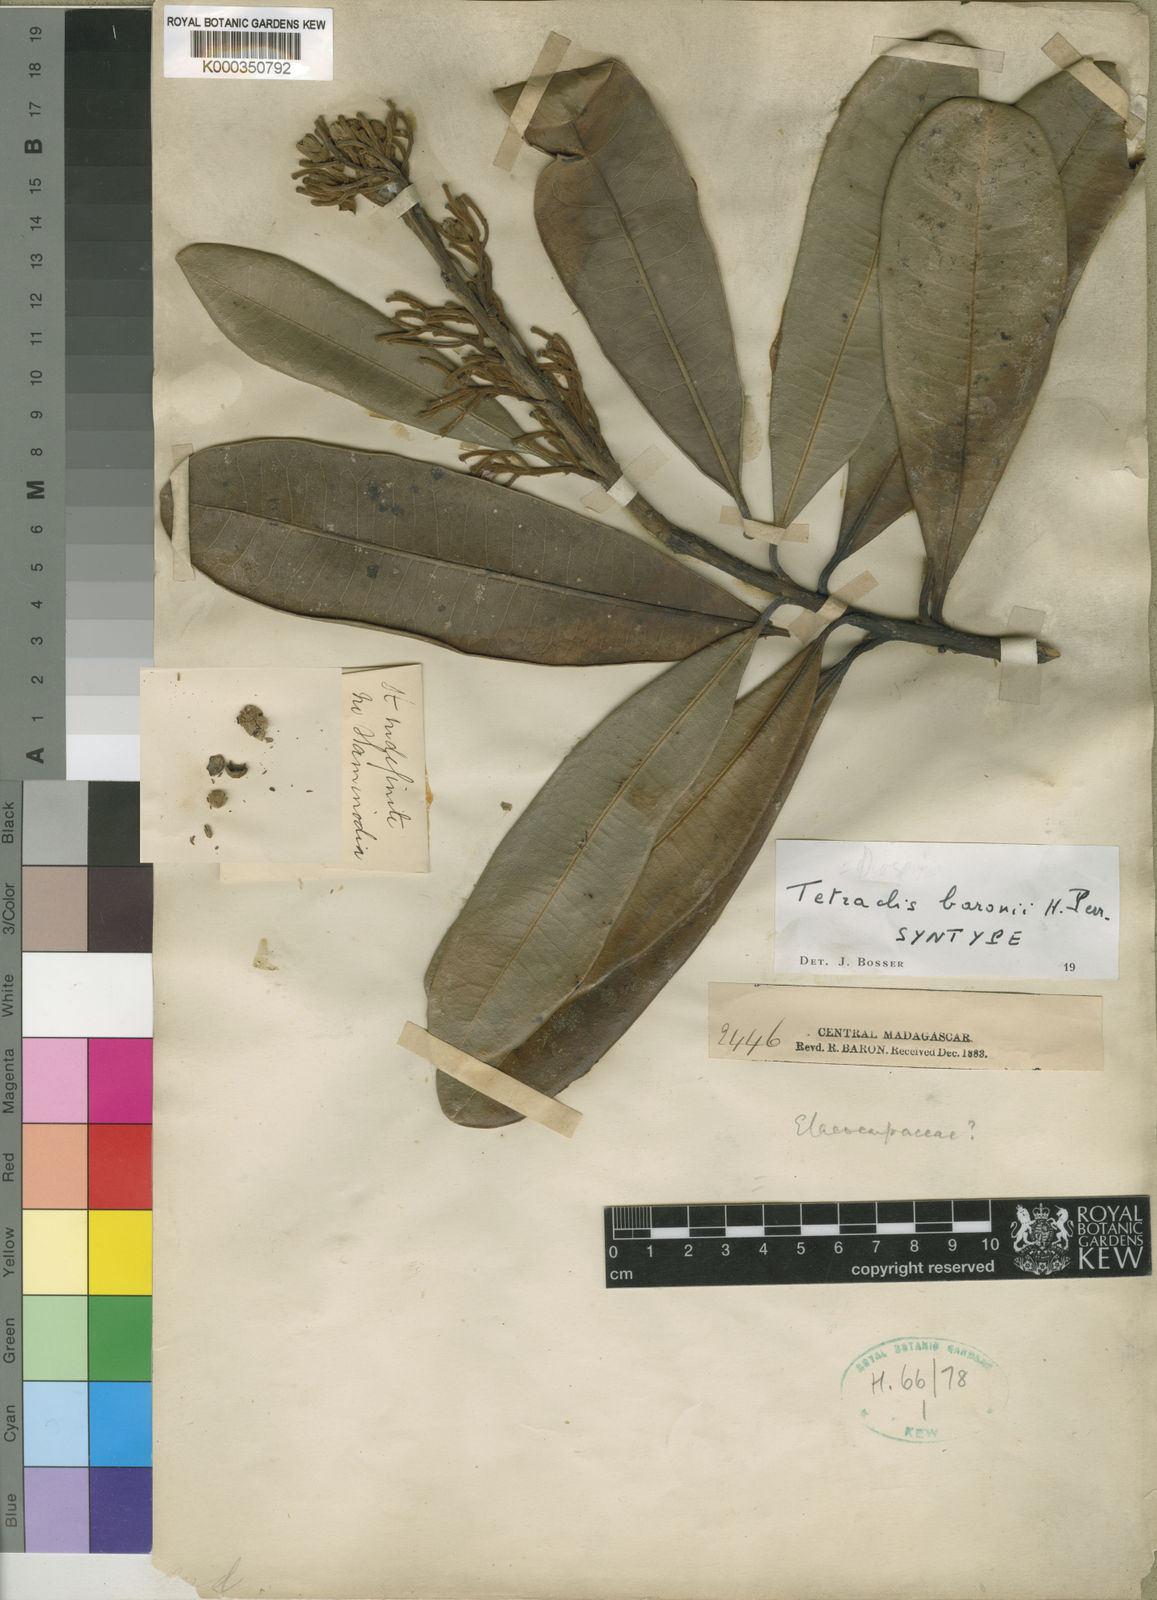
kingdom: Plantae
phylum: Tracheophyta
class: Magnoliopsida
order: Ericales
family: Ebenaceae
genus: Diospyros
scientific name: Diospyros baroniana
